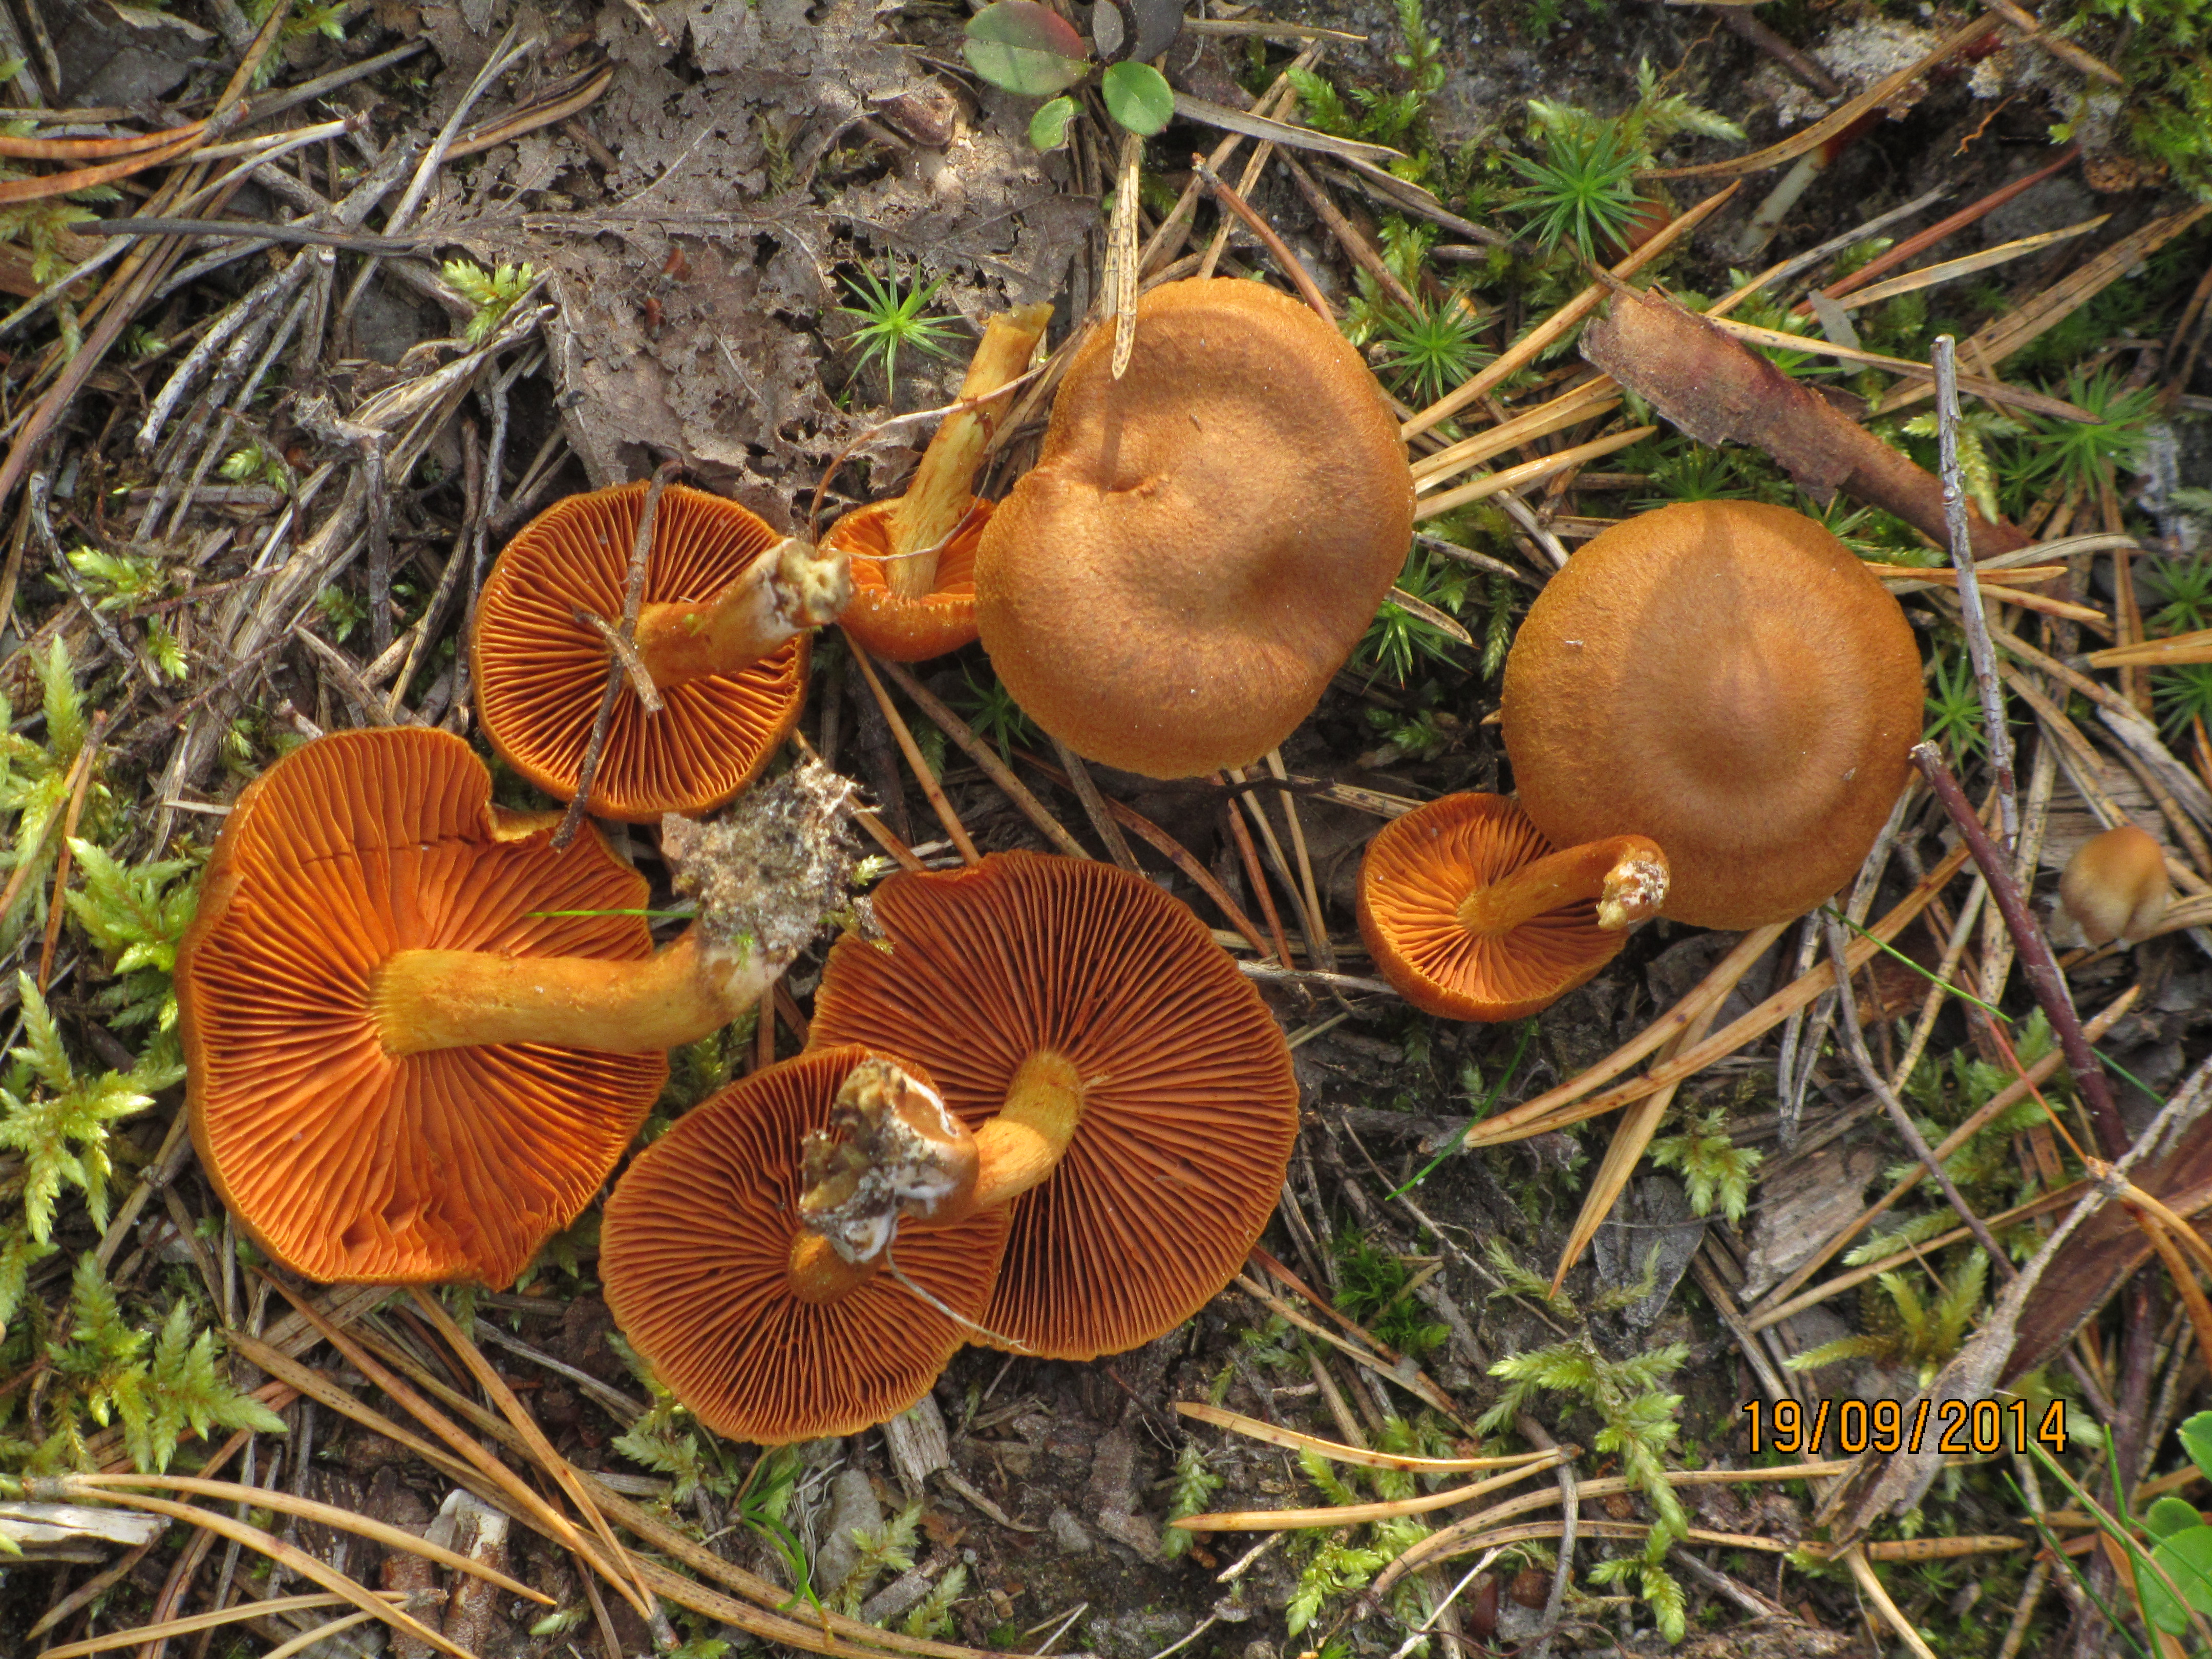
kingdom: Fungi
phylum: Basidiomycota
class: Agaricomycetes
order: Agaricales
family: Cortinariaceae
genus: Cortinarius
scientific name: Cortinarius cinnamomeus
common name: Cinnamon webcap
